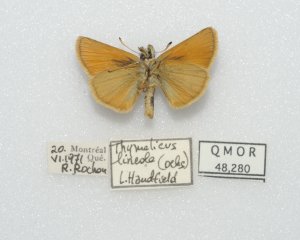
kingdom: Animalia
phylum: Arthropoda
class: Insecta
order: Lepidoptera
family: Hesperiidae
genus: Thymelicus
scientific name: Thymelicus lineola
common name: European Skipper
